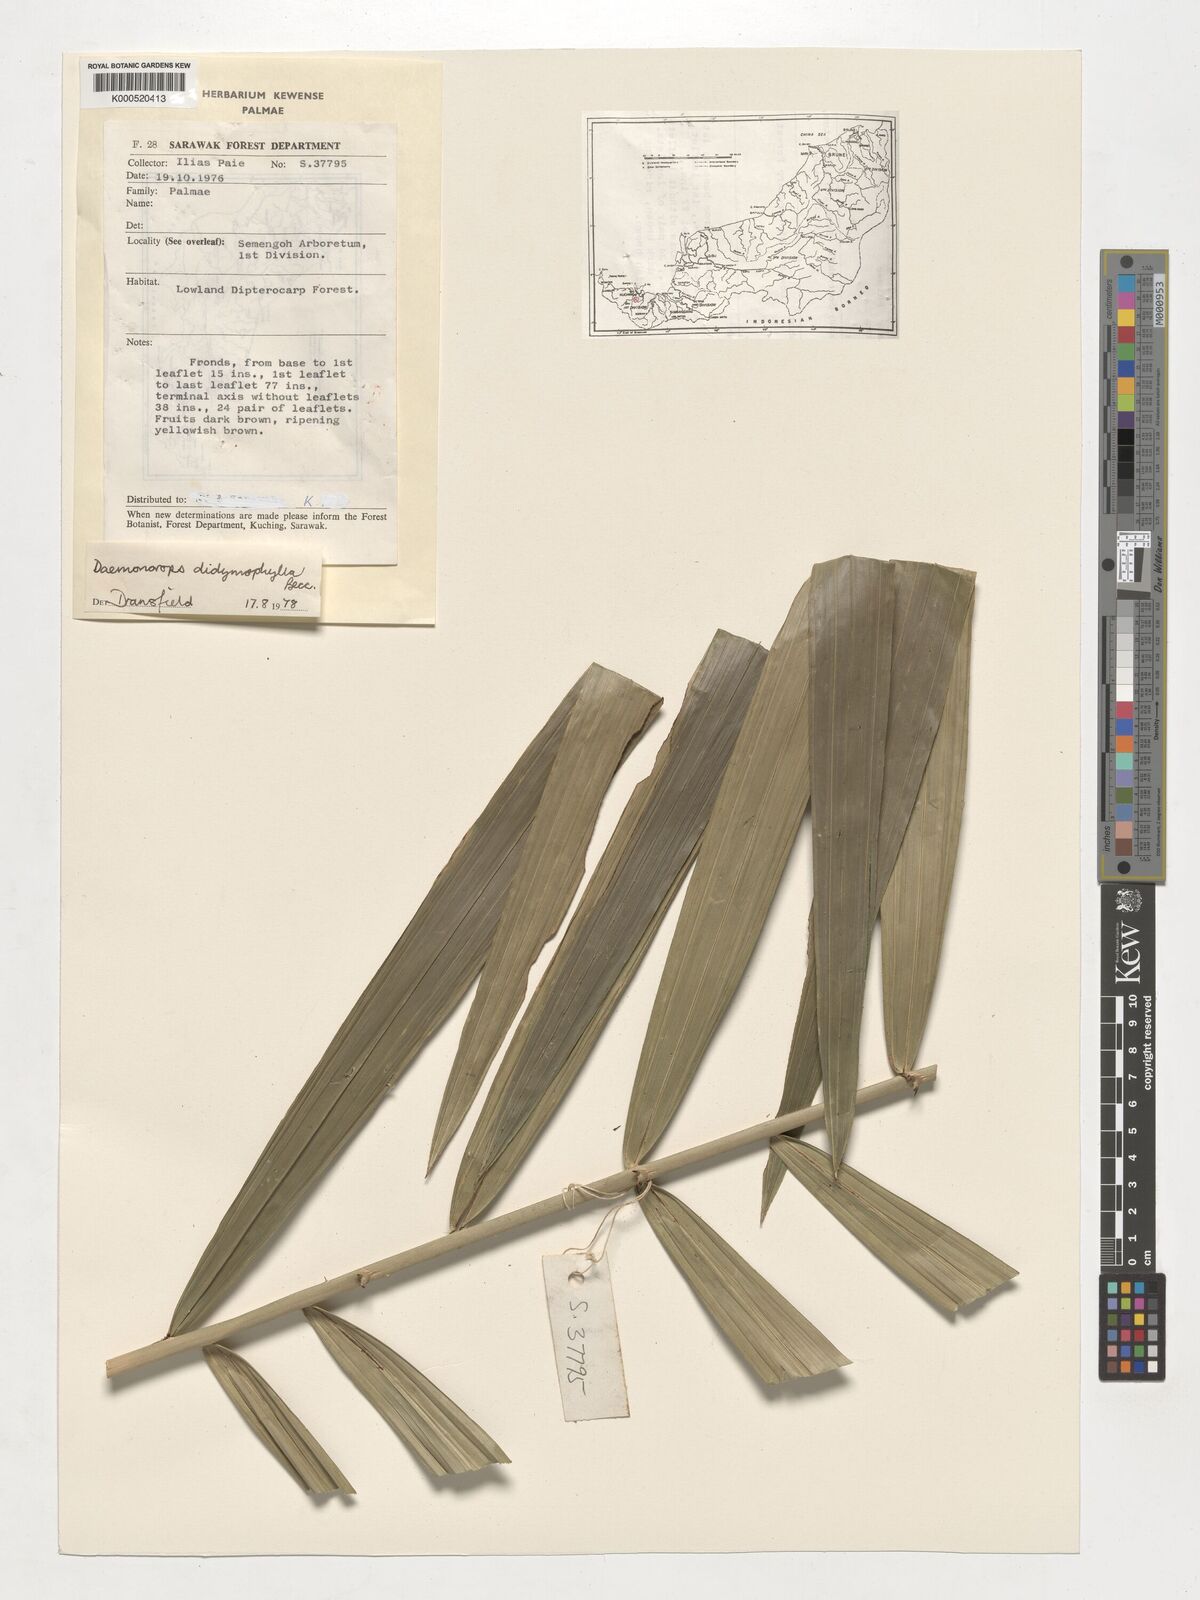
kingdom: Plantae
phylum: Tracheophyta
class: Liliopsida
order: Arecales
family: Arecaceae
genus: Calamus
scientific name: Calamus gracilipes
